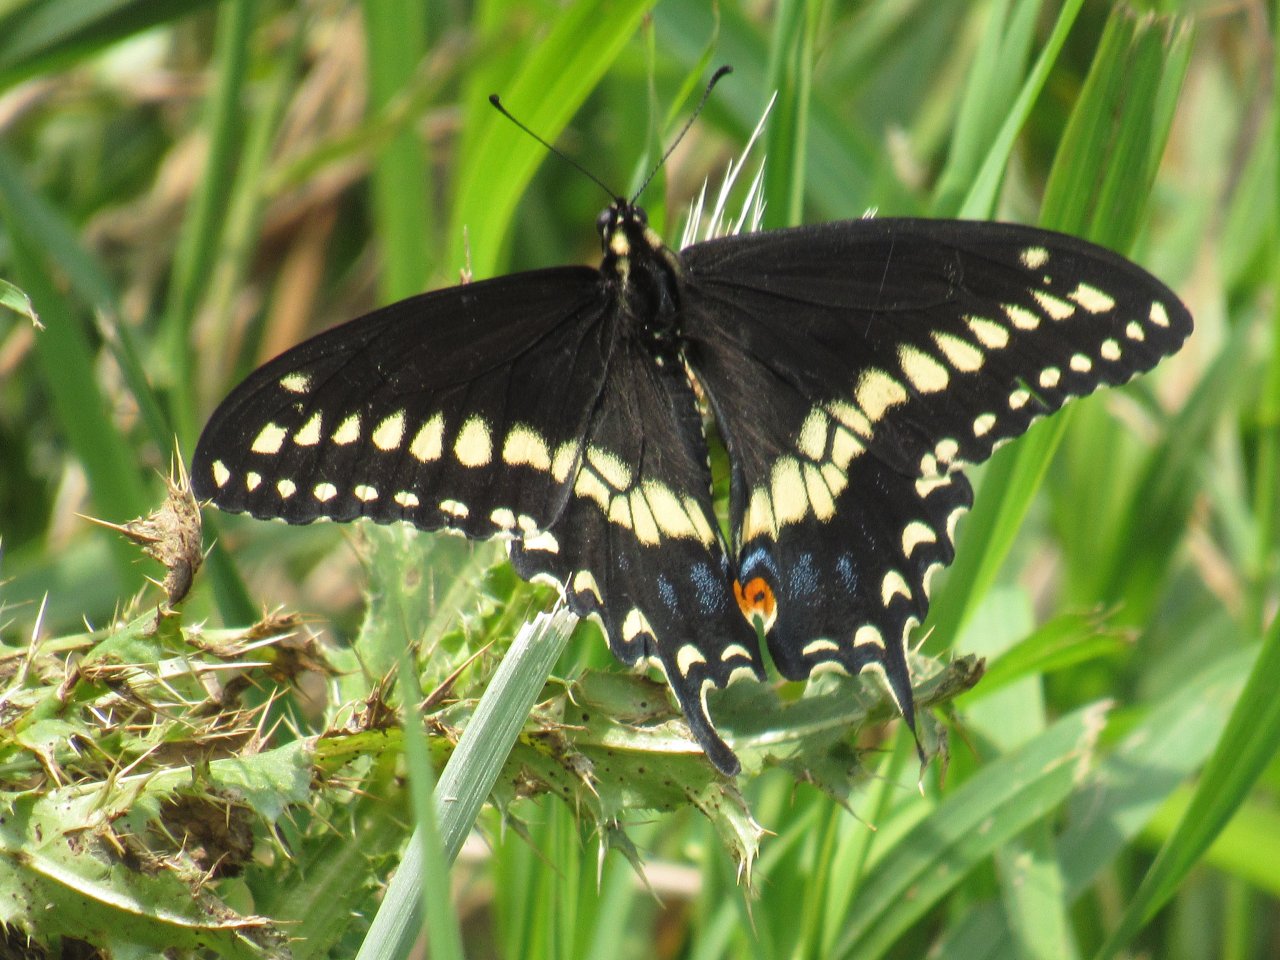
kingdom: Animalia
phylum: Arthropoda
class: Insecta
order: Lepidoptera
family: Papilionidae
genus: Papilio
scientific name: Papilio polyxenes
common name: Black Swallowtail
